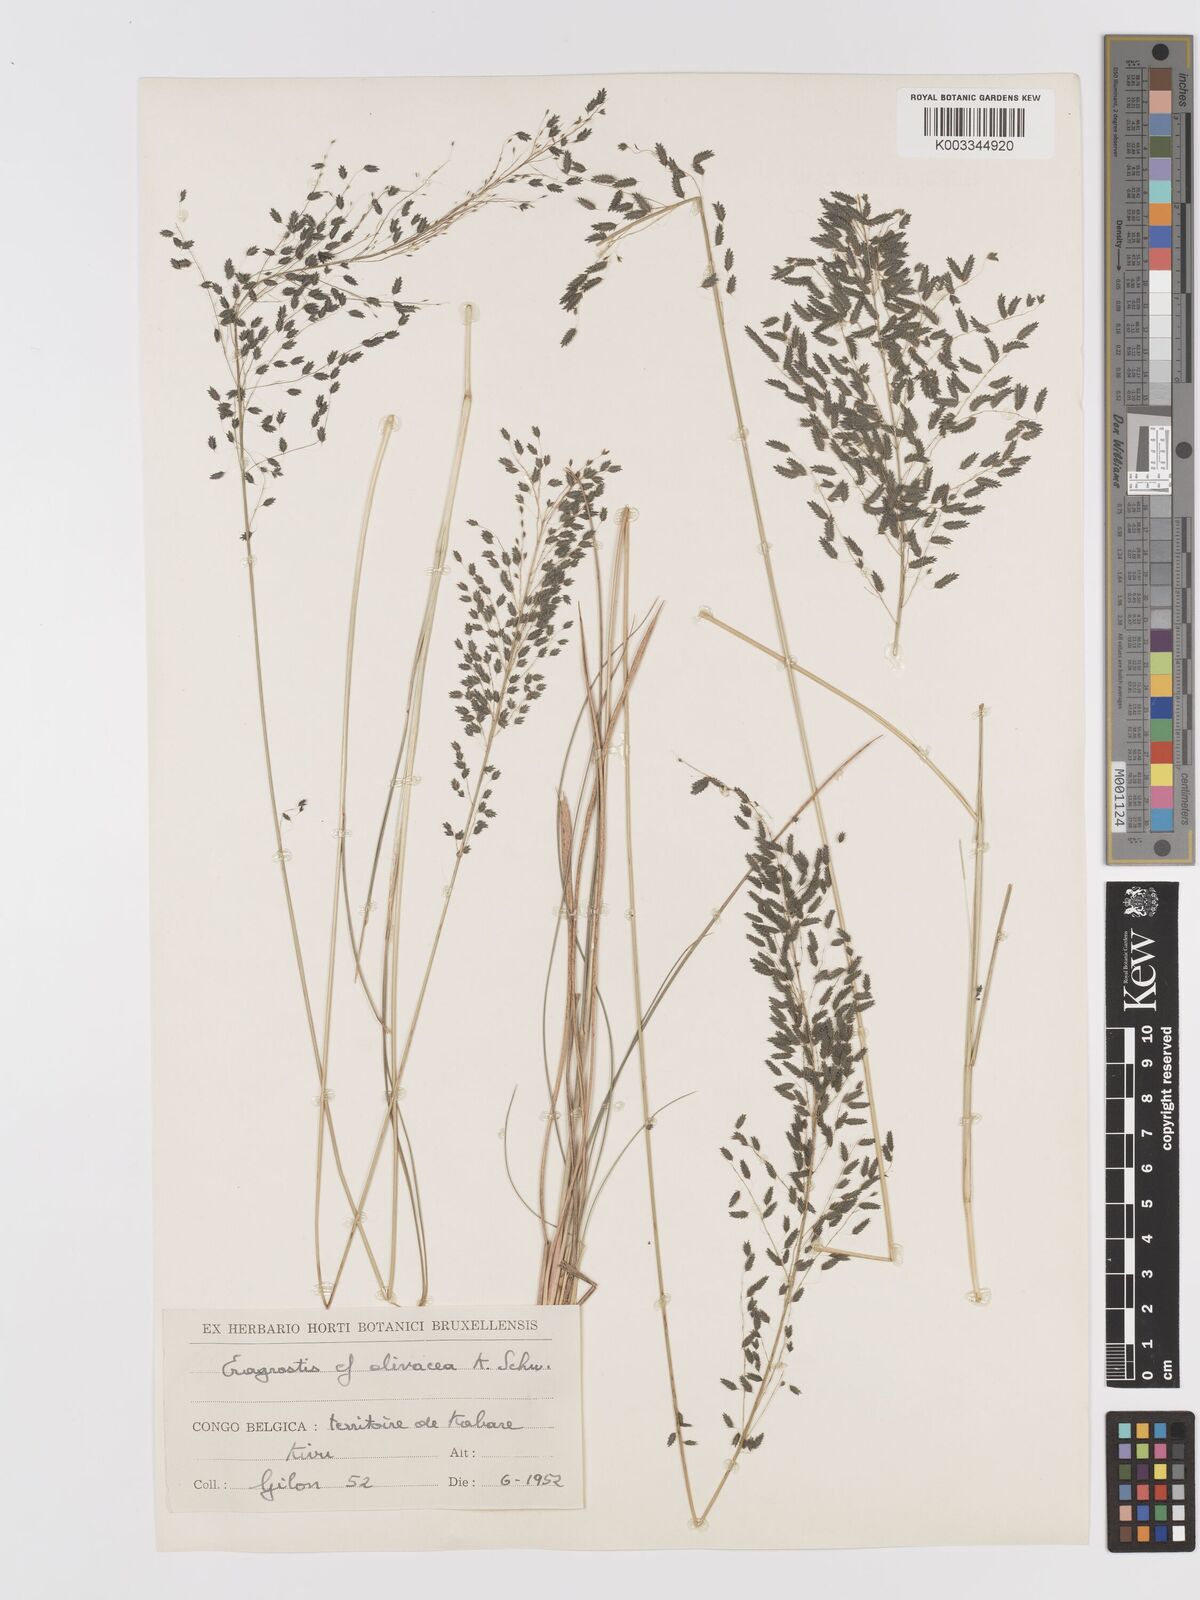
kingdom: Plantae
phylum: Tracheophyta
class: Liliopsida
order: Poales
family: Poaceae
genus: Eragrostis
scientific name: Eragrostis olivacea
